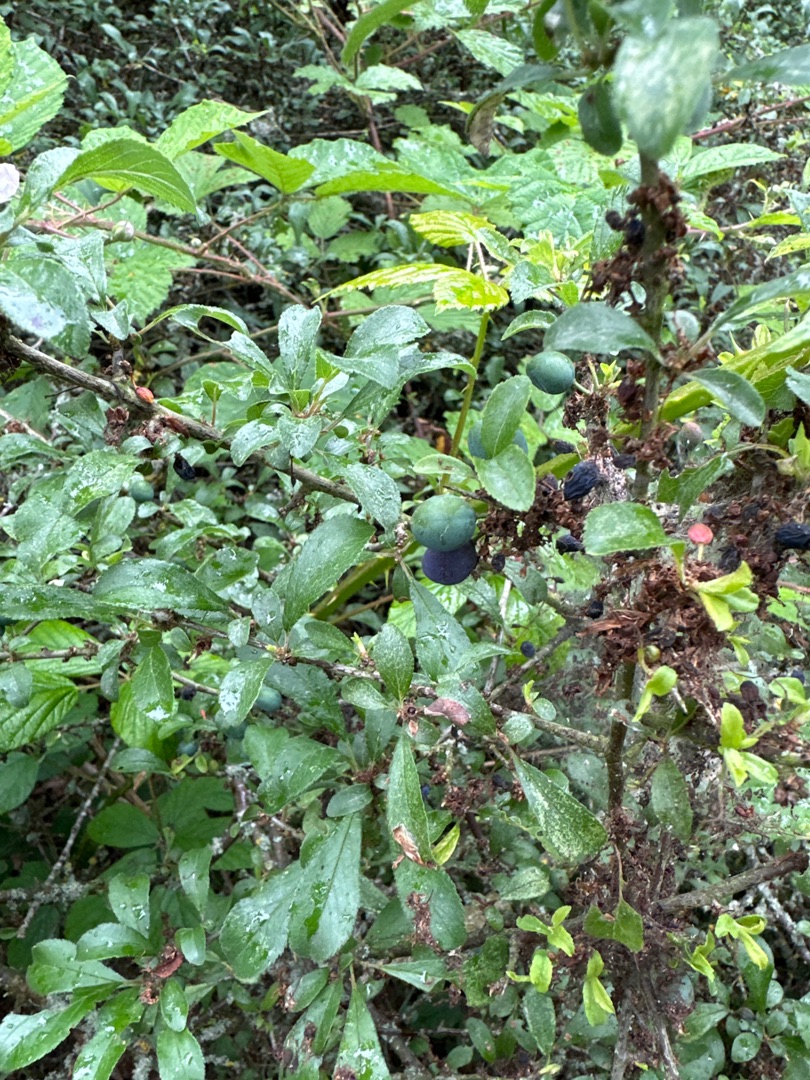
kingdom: Plantae
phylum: Tracheophyta
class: Magnoliopsida
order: Rosales
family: Rosaceae
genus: Prunus
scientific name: Prunus spinosa
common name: Slåen
